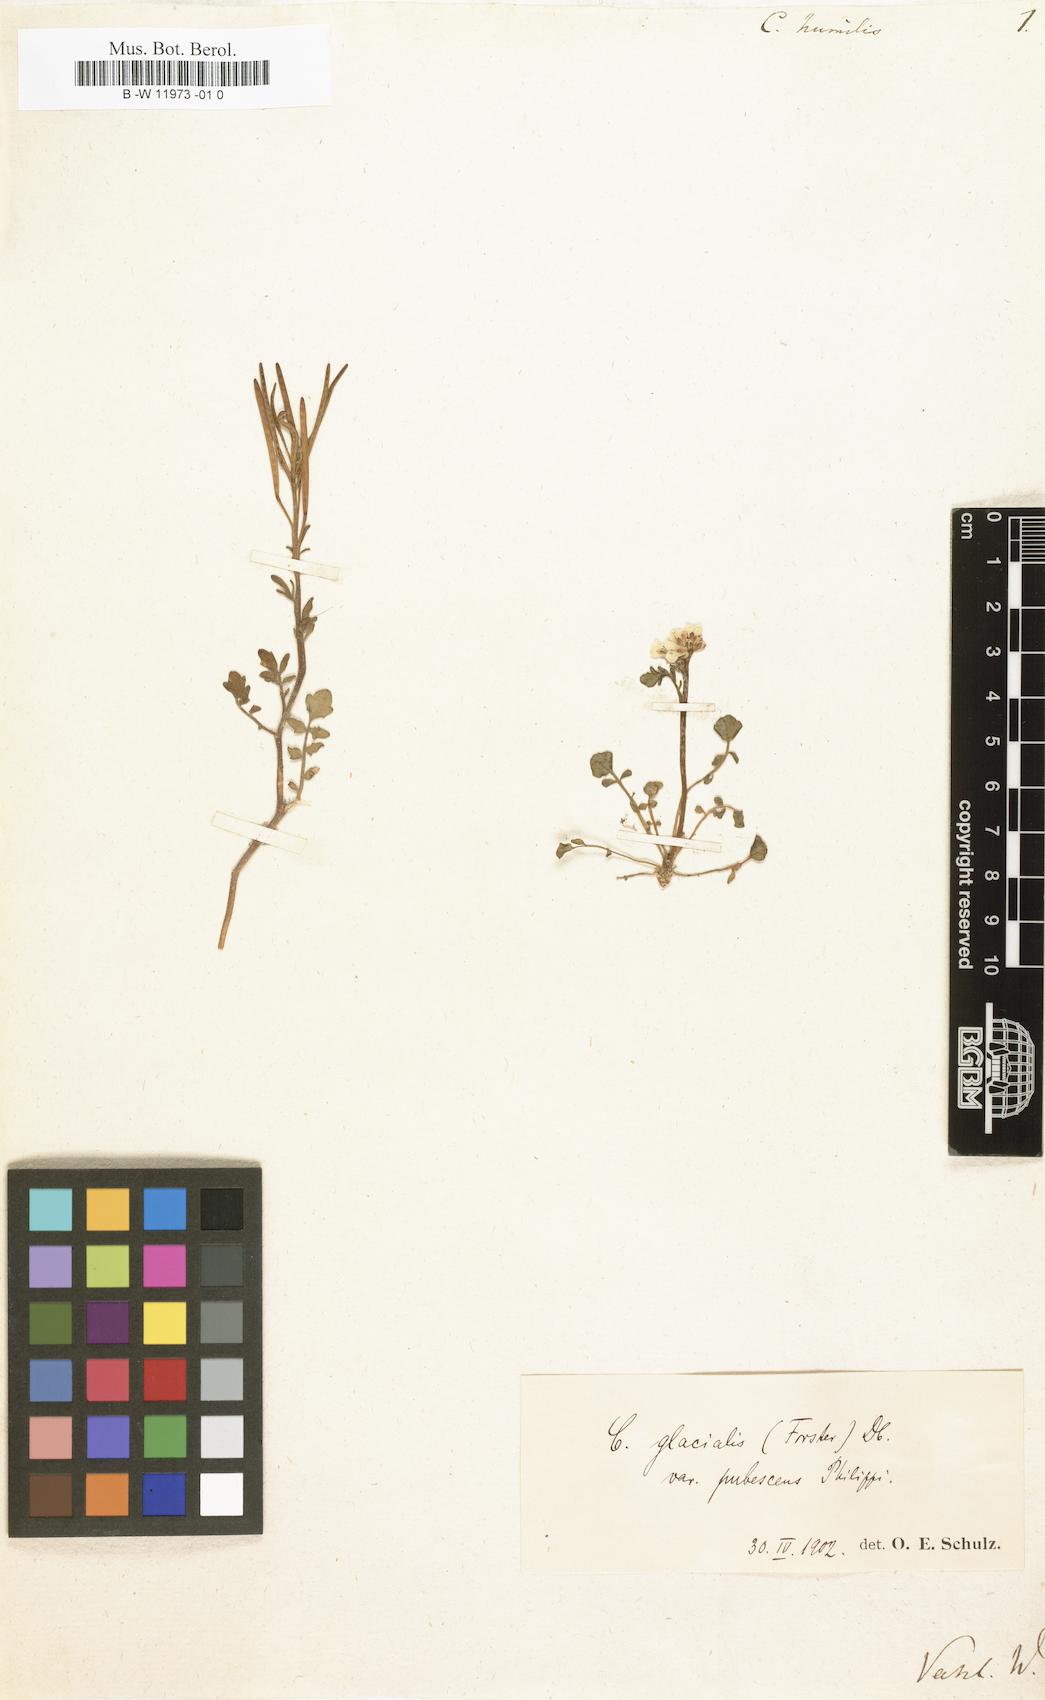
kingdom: Plantae
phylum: Tracheophyta
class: Magnoliopsida
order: Brassicales
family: Brassicaceae
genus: Cardamine
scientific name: Cardamine hirsuta
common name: Hairy bittercress
